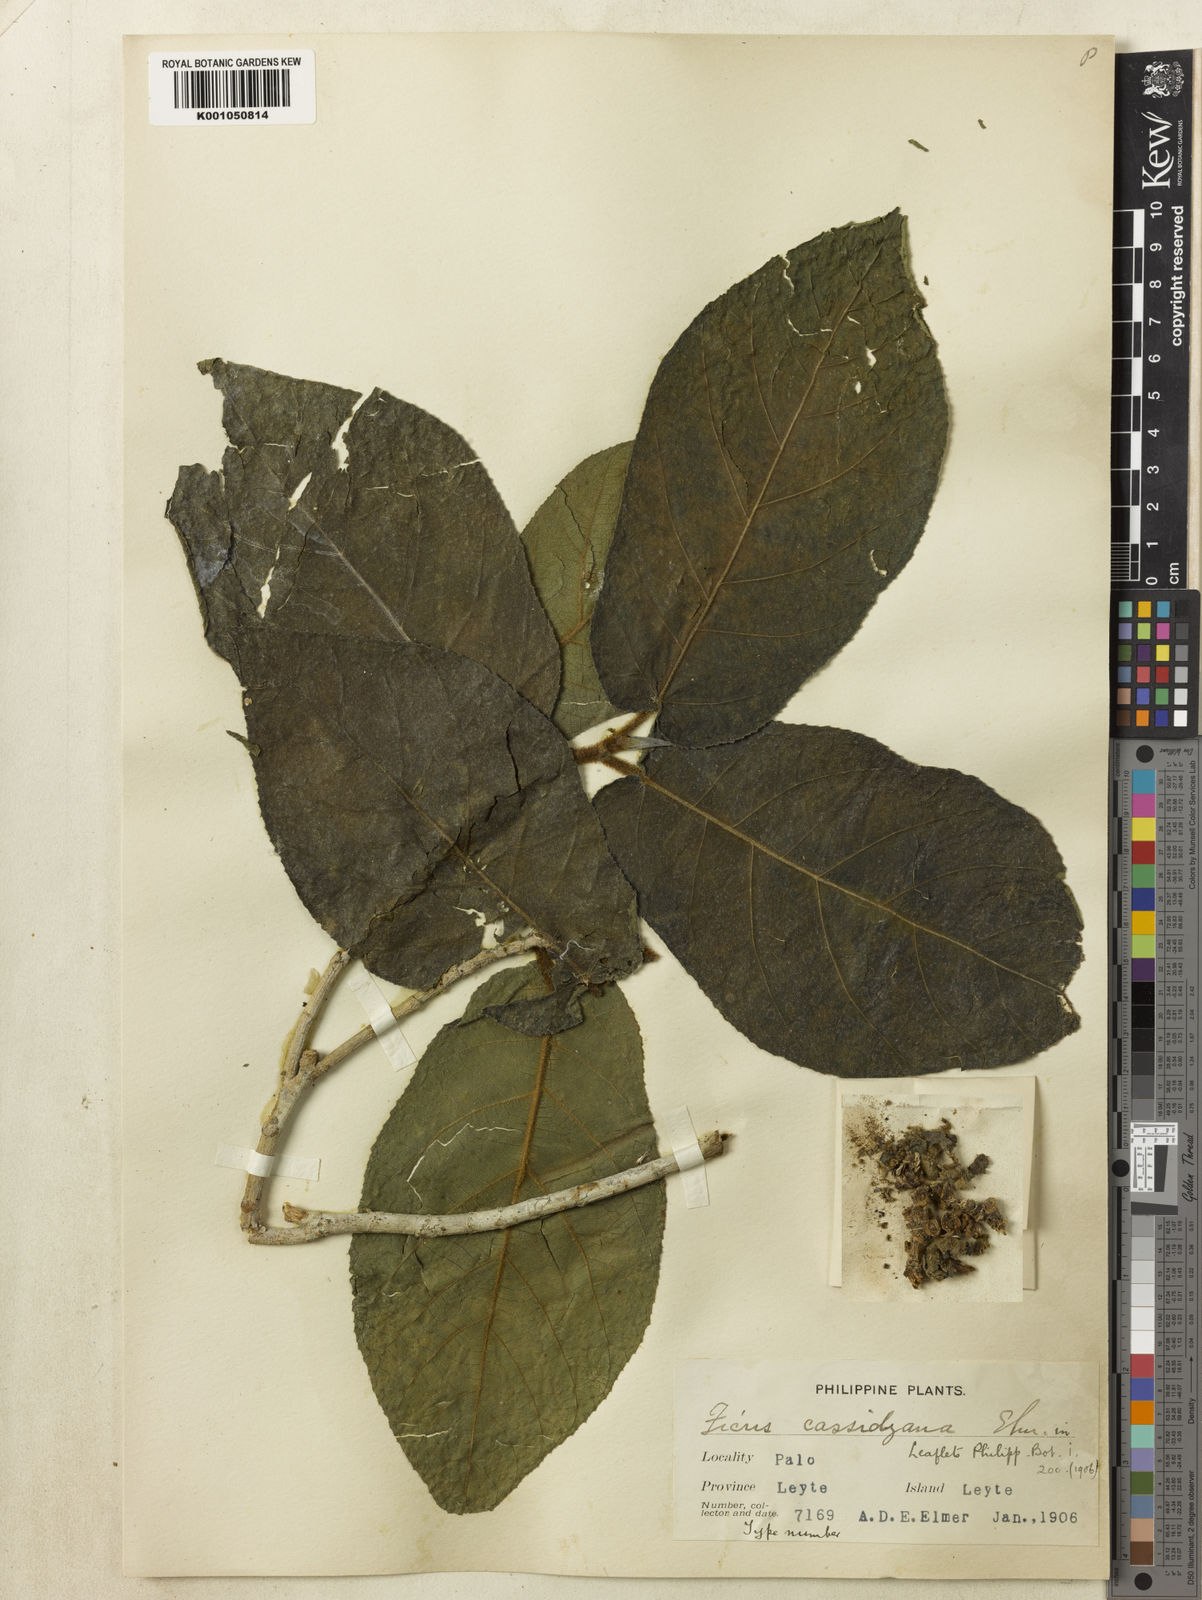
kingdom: Plantae
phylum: Tracheophyta
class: Magnoliopsida
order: Rosales
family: Moraceae
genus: Ficus
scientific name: Ficus cassidyana
